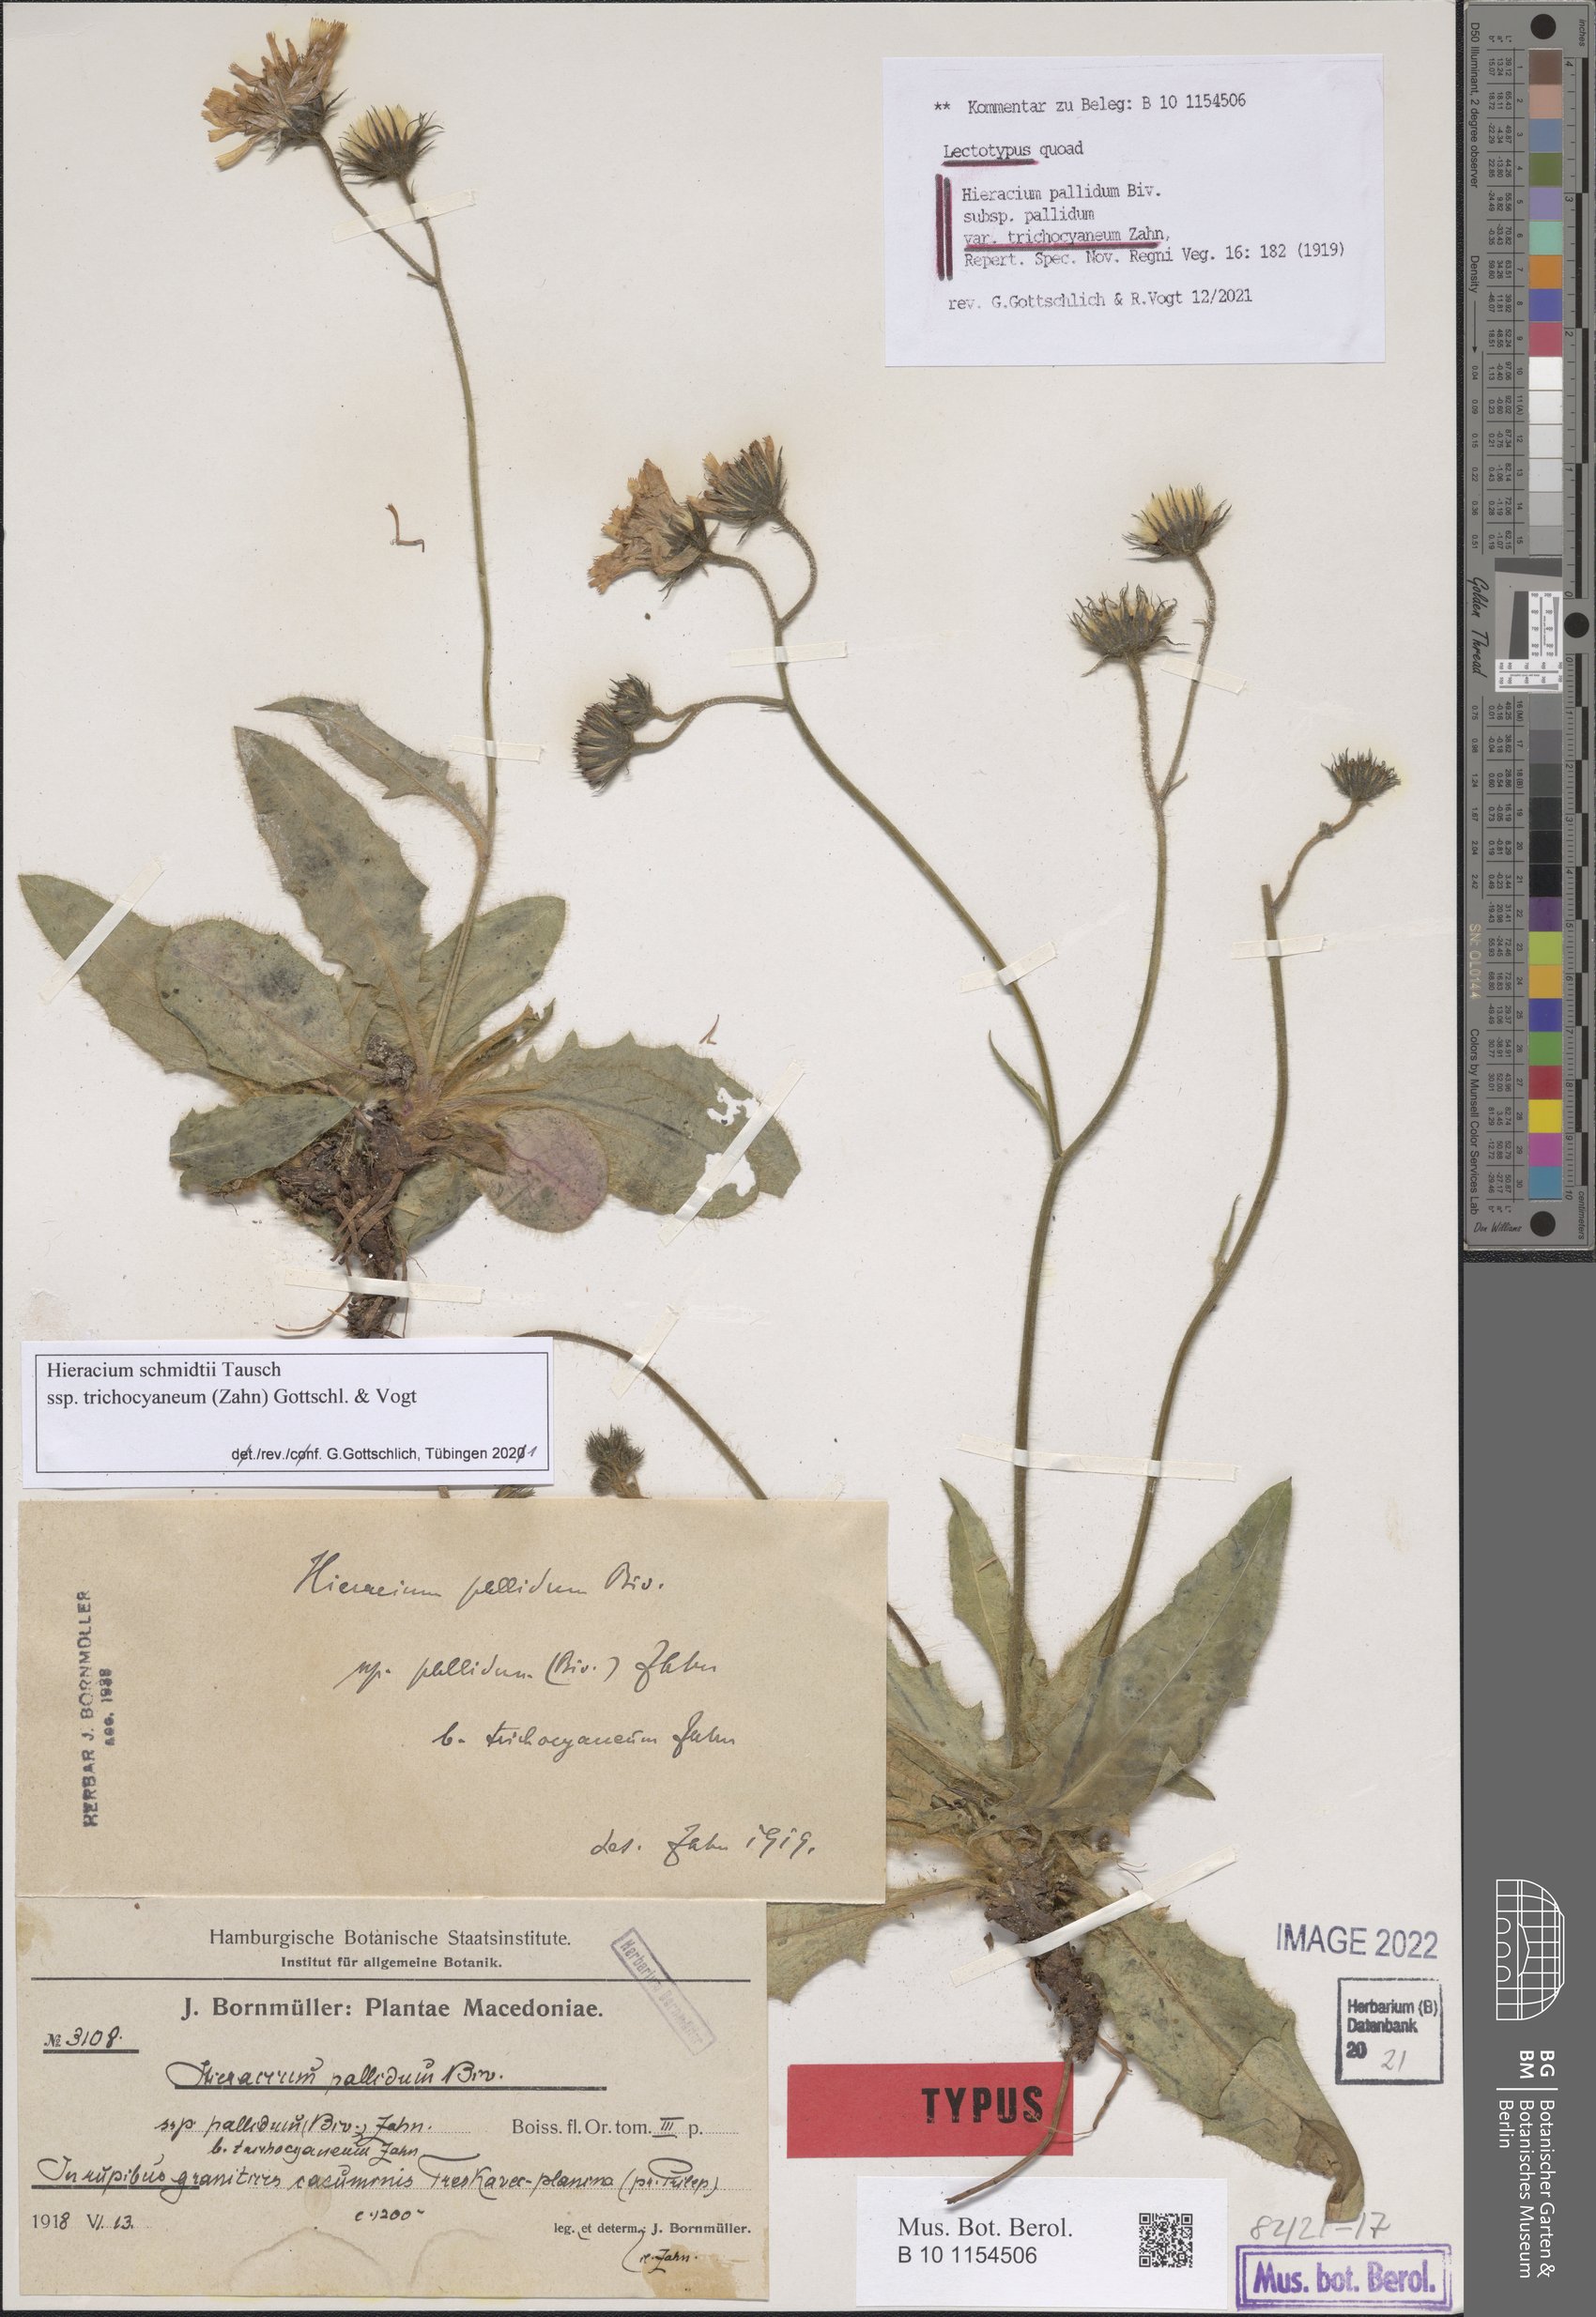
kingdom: Plantae
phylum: Tracheophyta
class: Magnoliopsida
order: Asterales
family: Asteraceae
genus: Hieracium
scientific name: Hieracium pallidum
